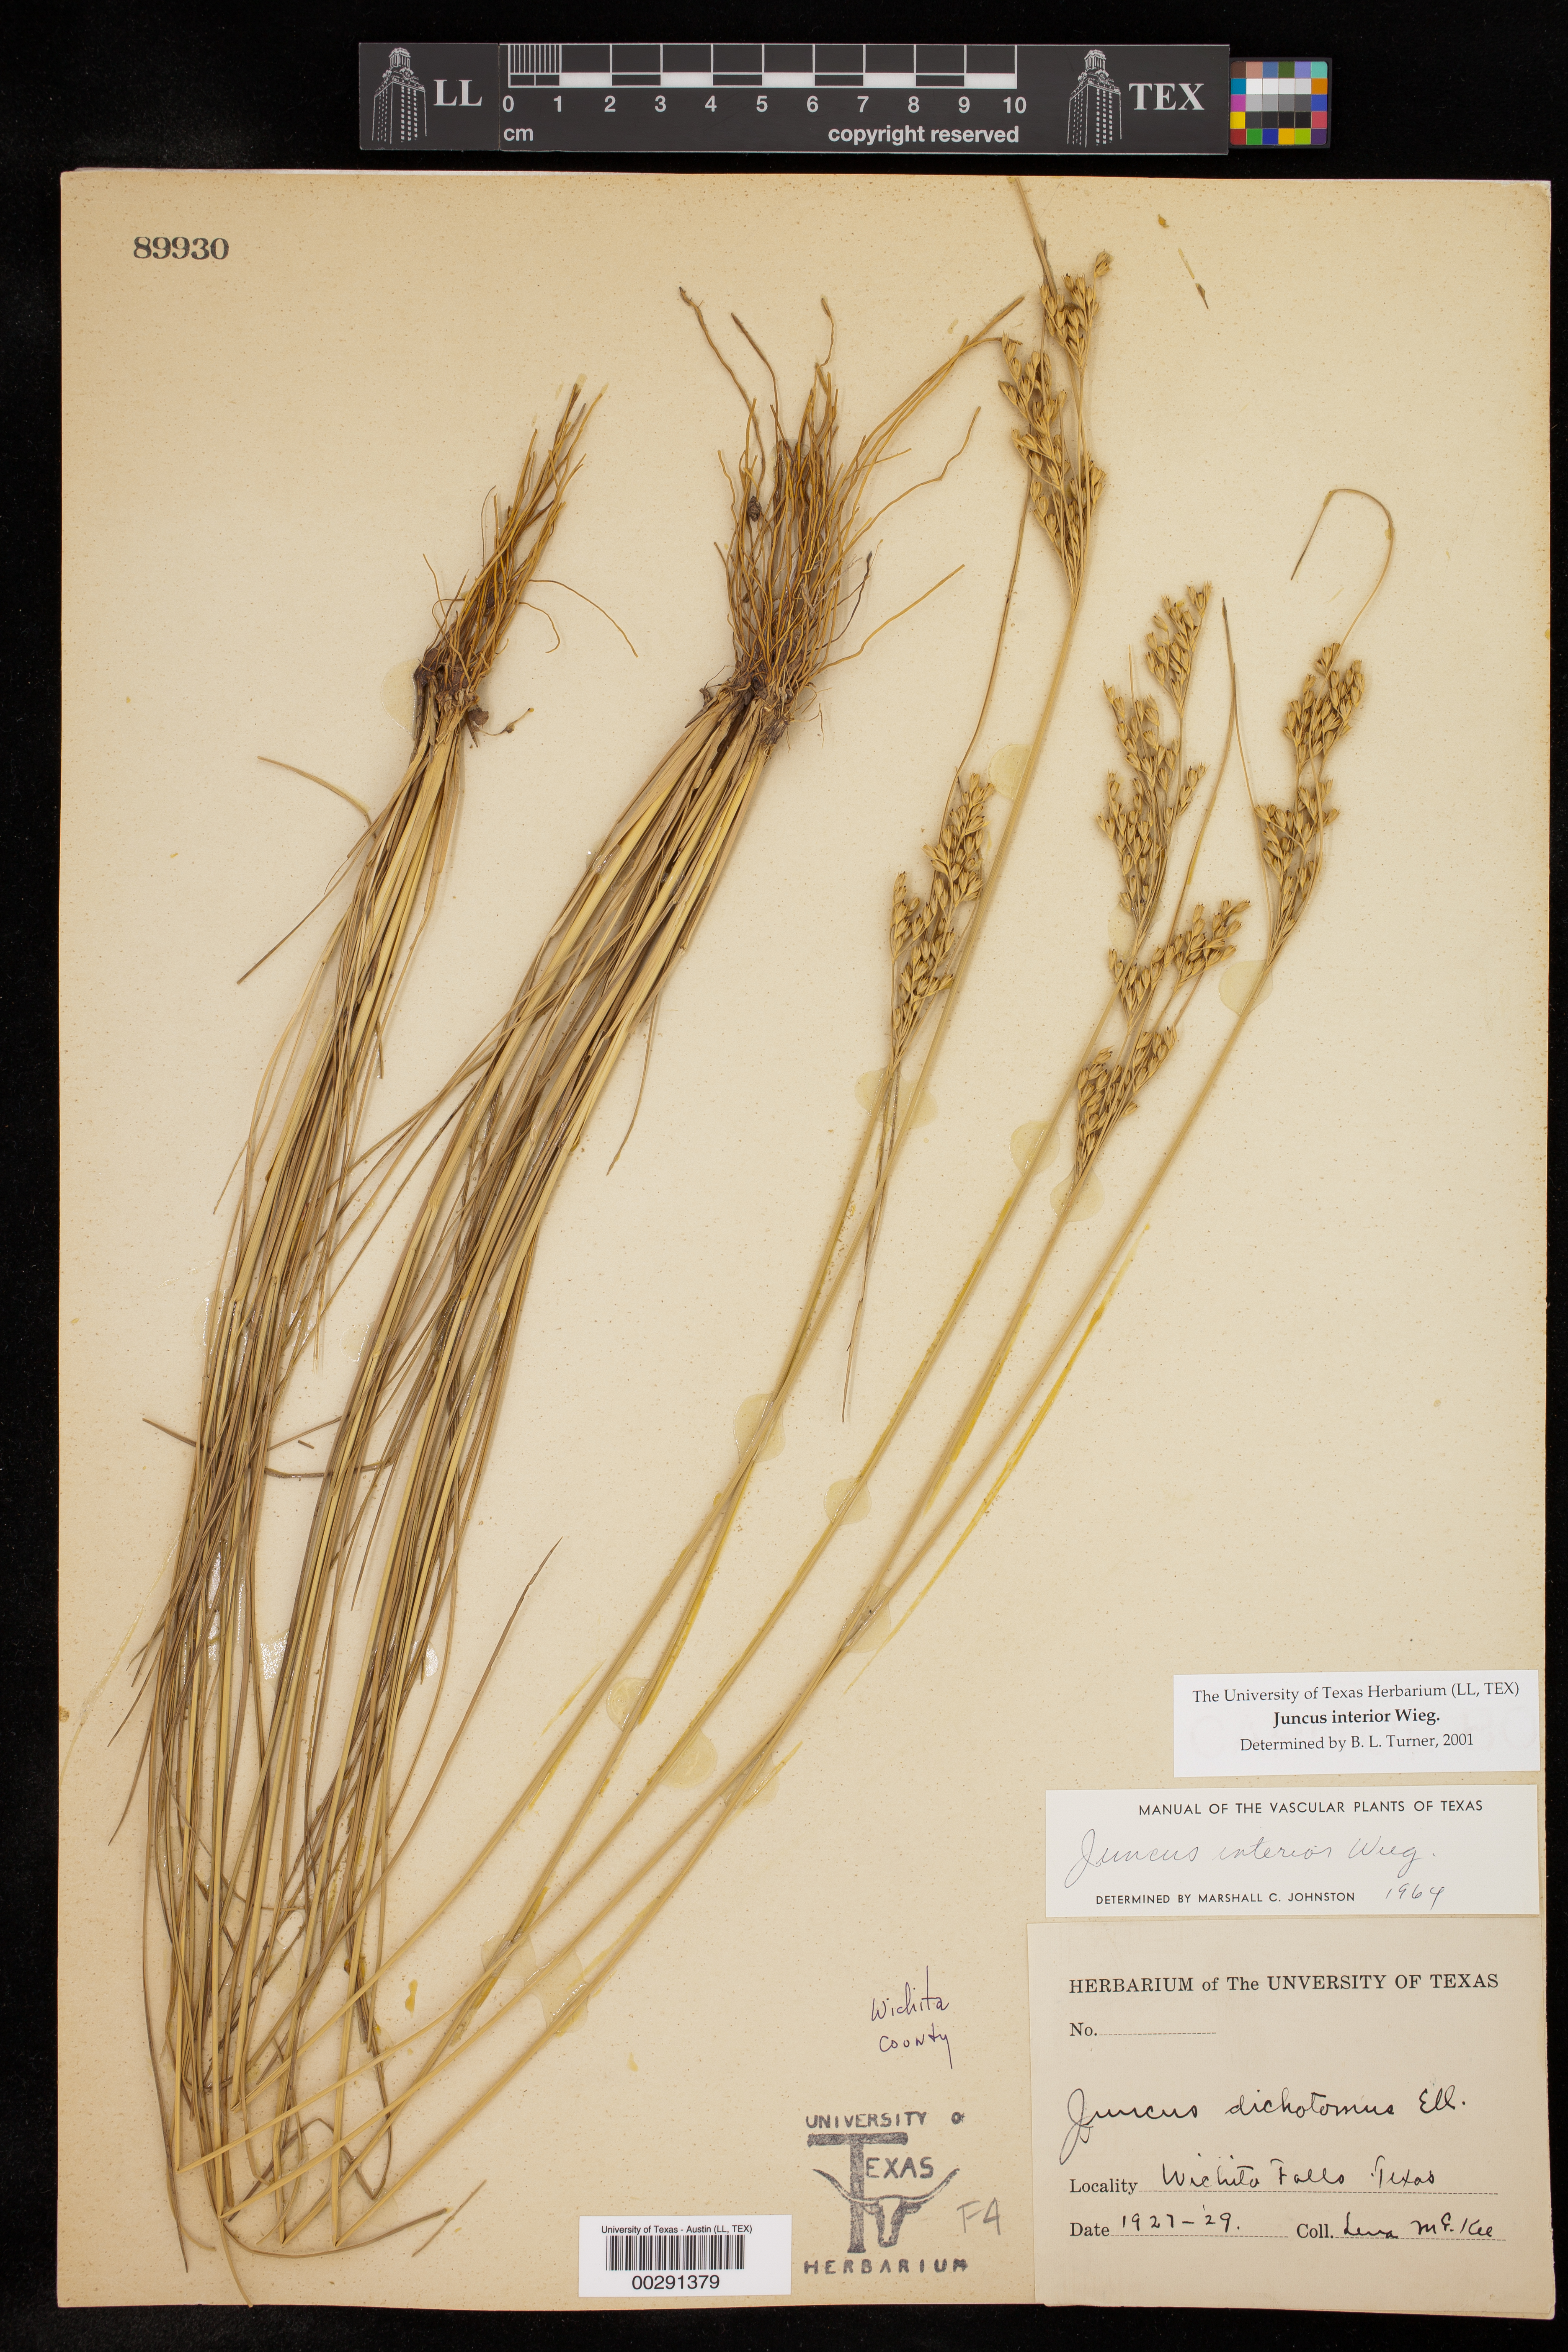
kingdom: Plantae
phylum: Tracheophyta
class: Liliopsida
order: Poales
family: Juncaceae
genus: Juncus
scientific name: Juncus interior
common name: Interior rush
